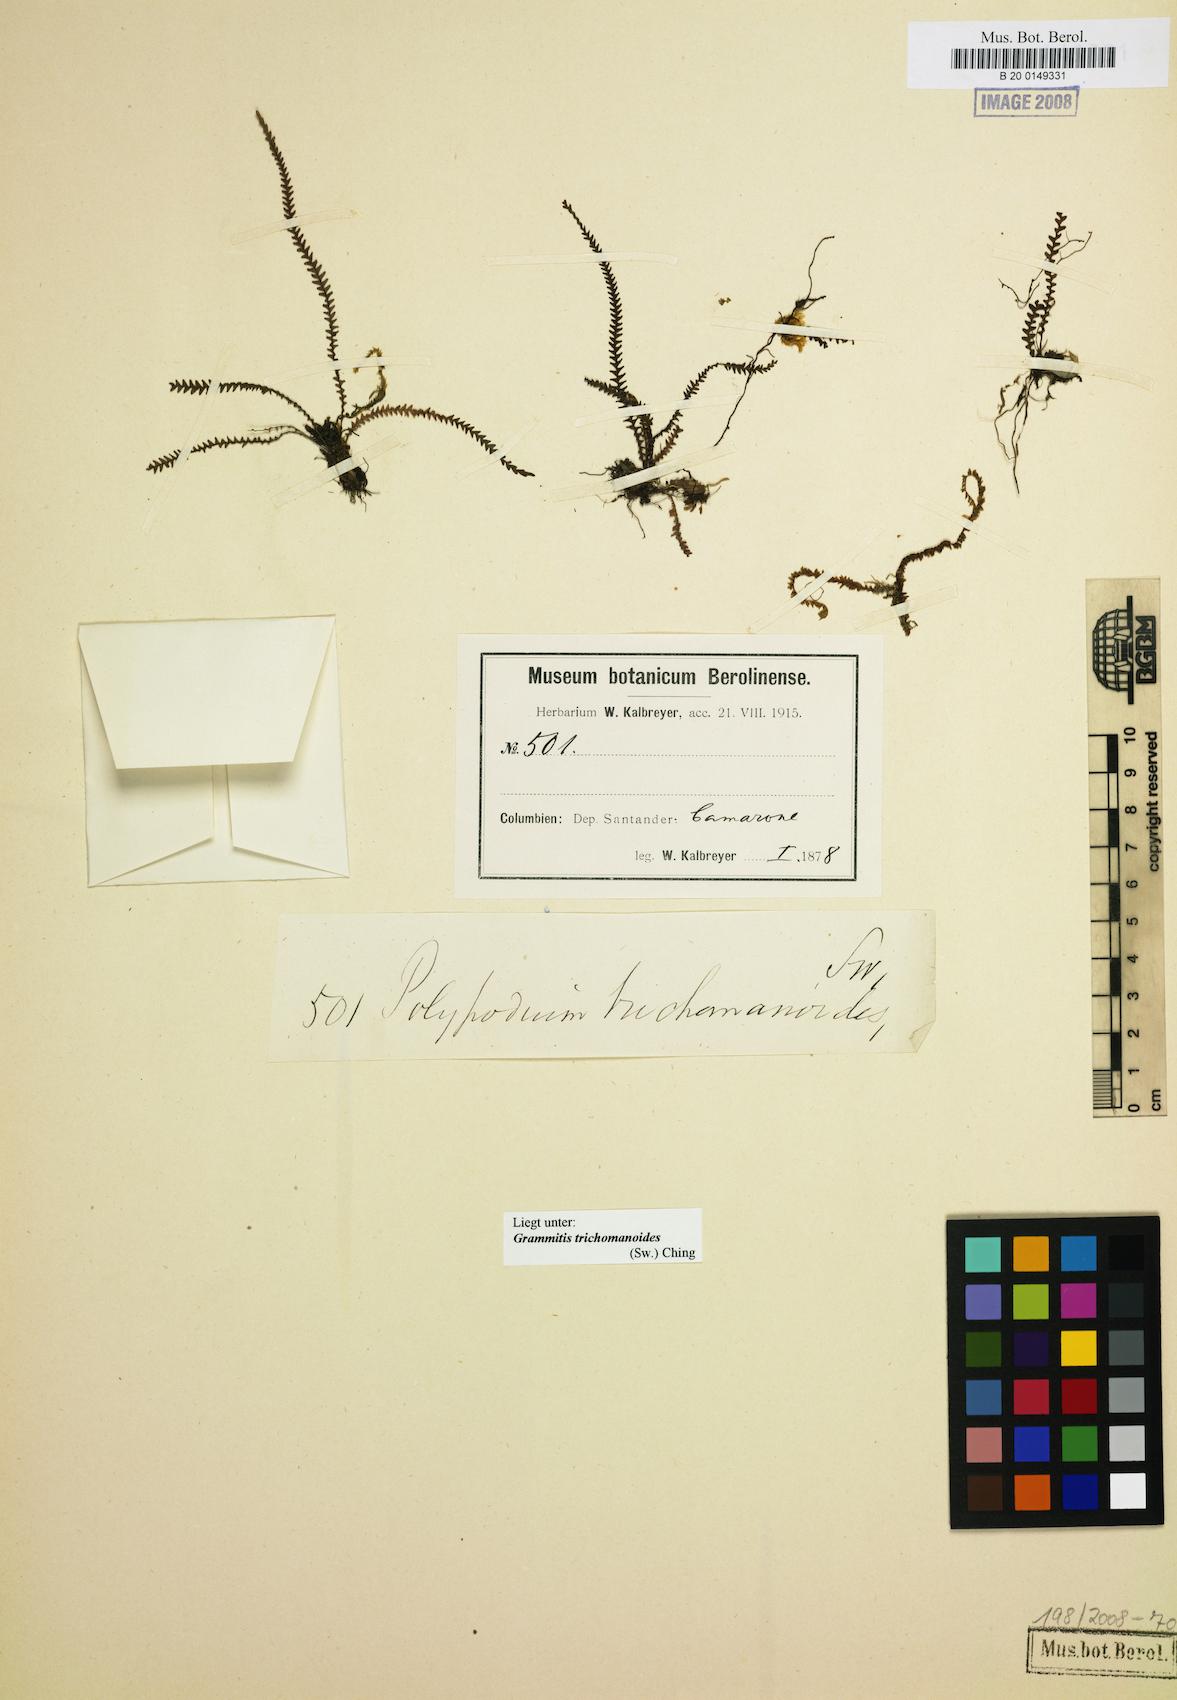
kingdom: Plantae
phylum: Tracheophyta
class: Polypodiopsida
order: Polypodiales
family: Polypodiaceae
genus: Stenogrammitis
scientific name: Stenogrammitis limula
